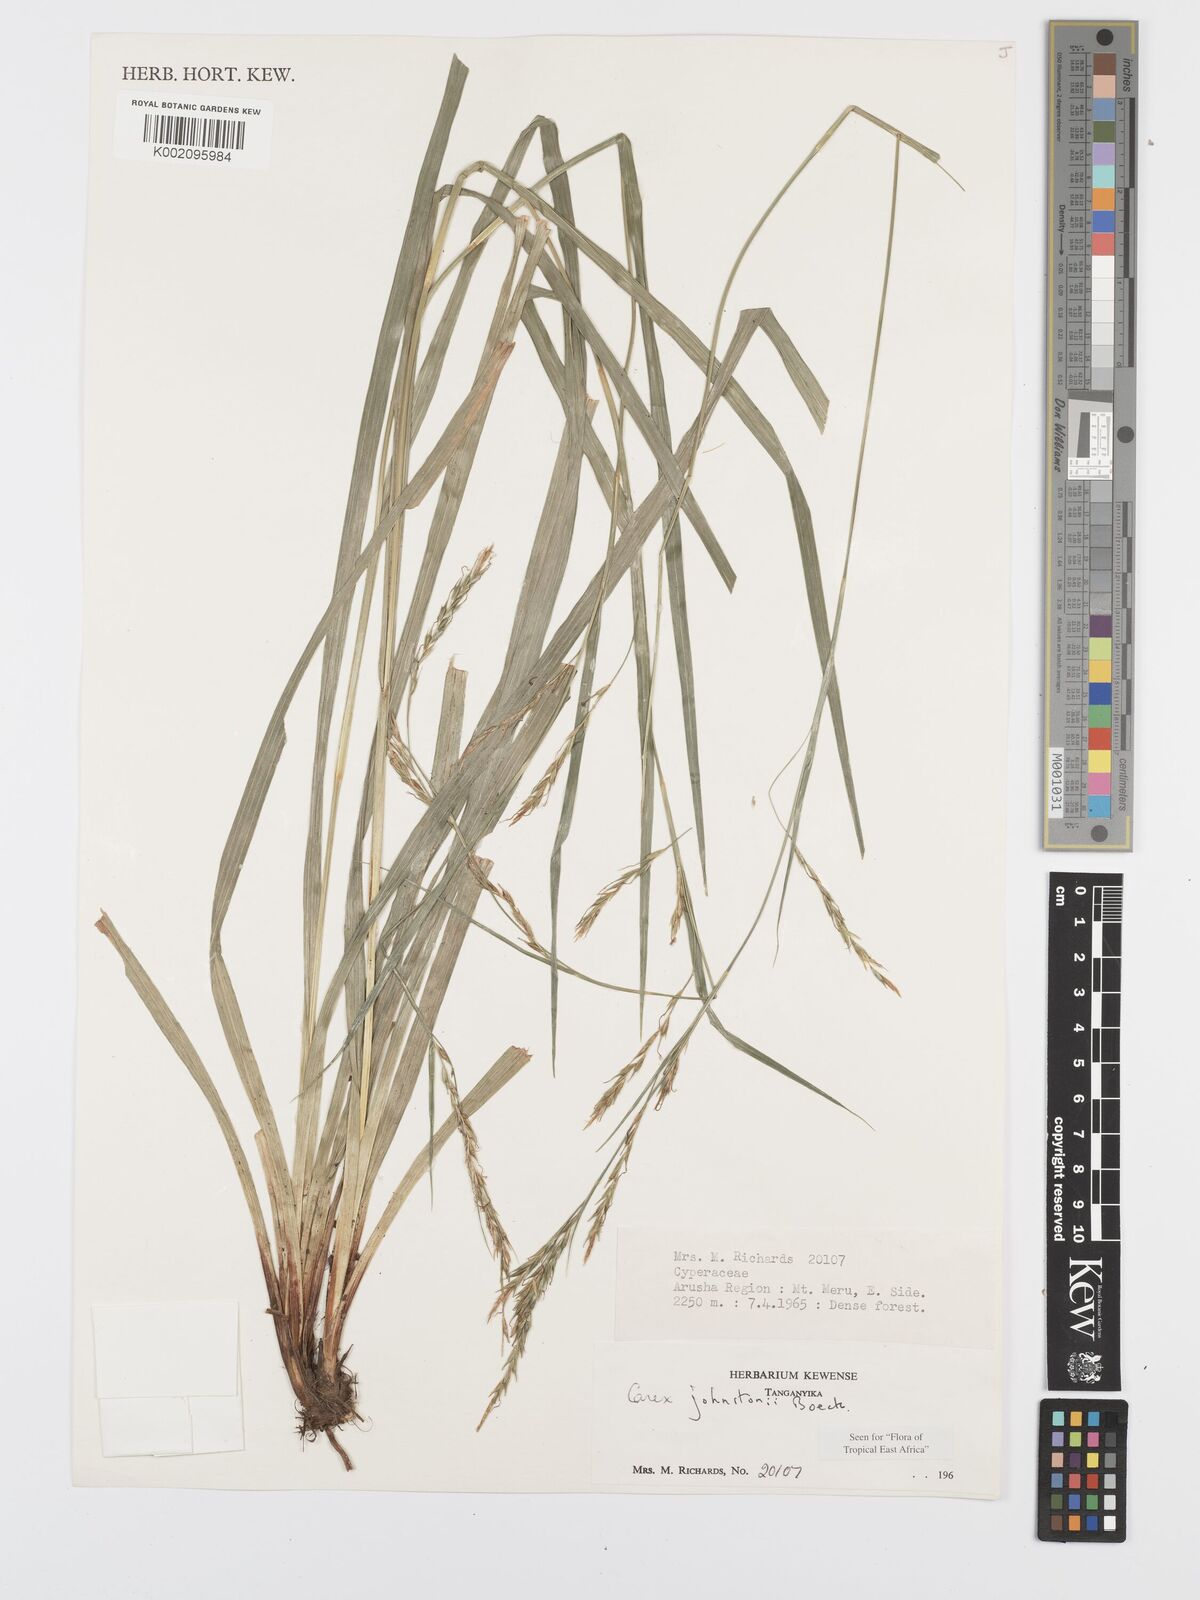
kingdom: Plantae
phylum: Tracheophyta
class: Liliopsida
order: Poales
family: Cyperaceae
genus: Carex
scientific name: Carex johnstonii
